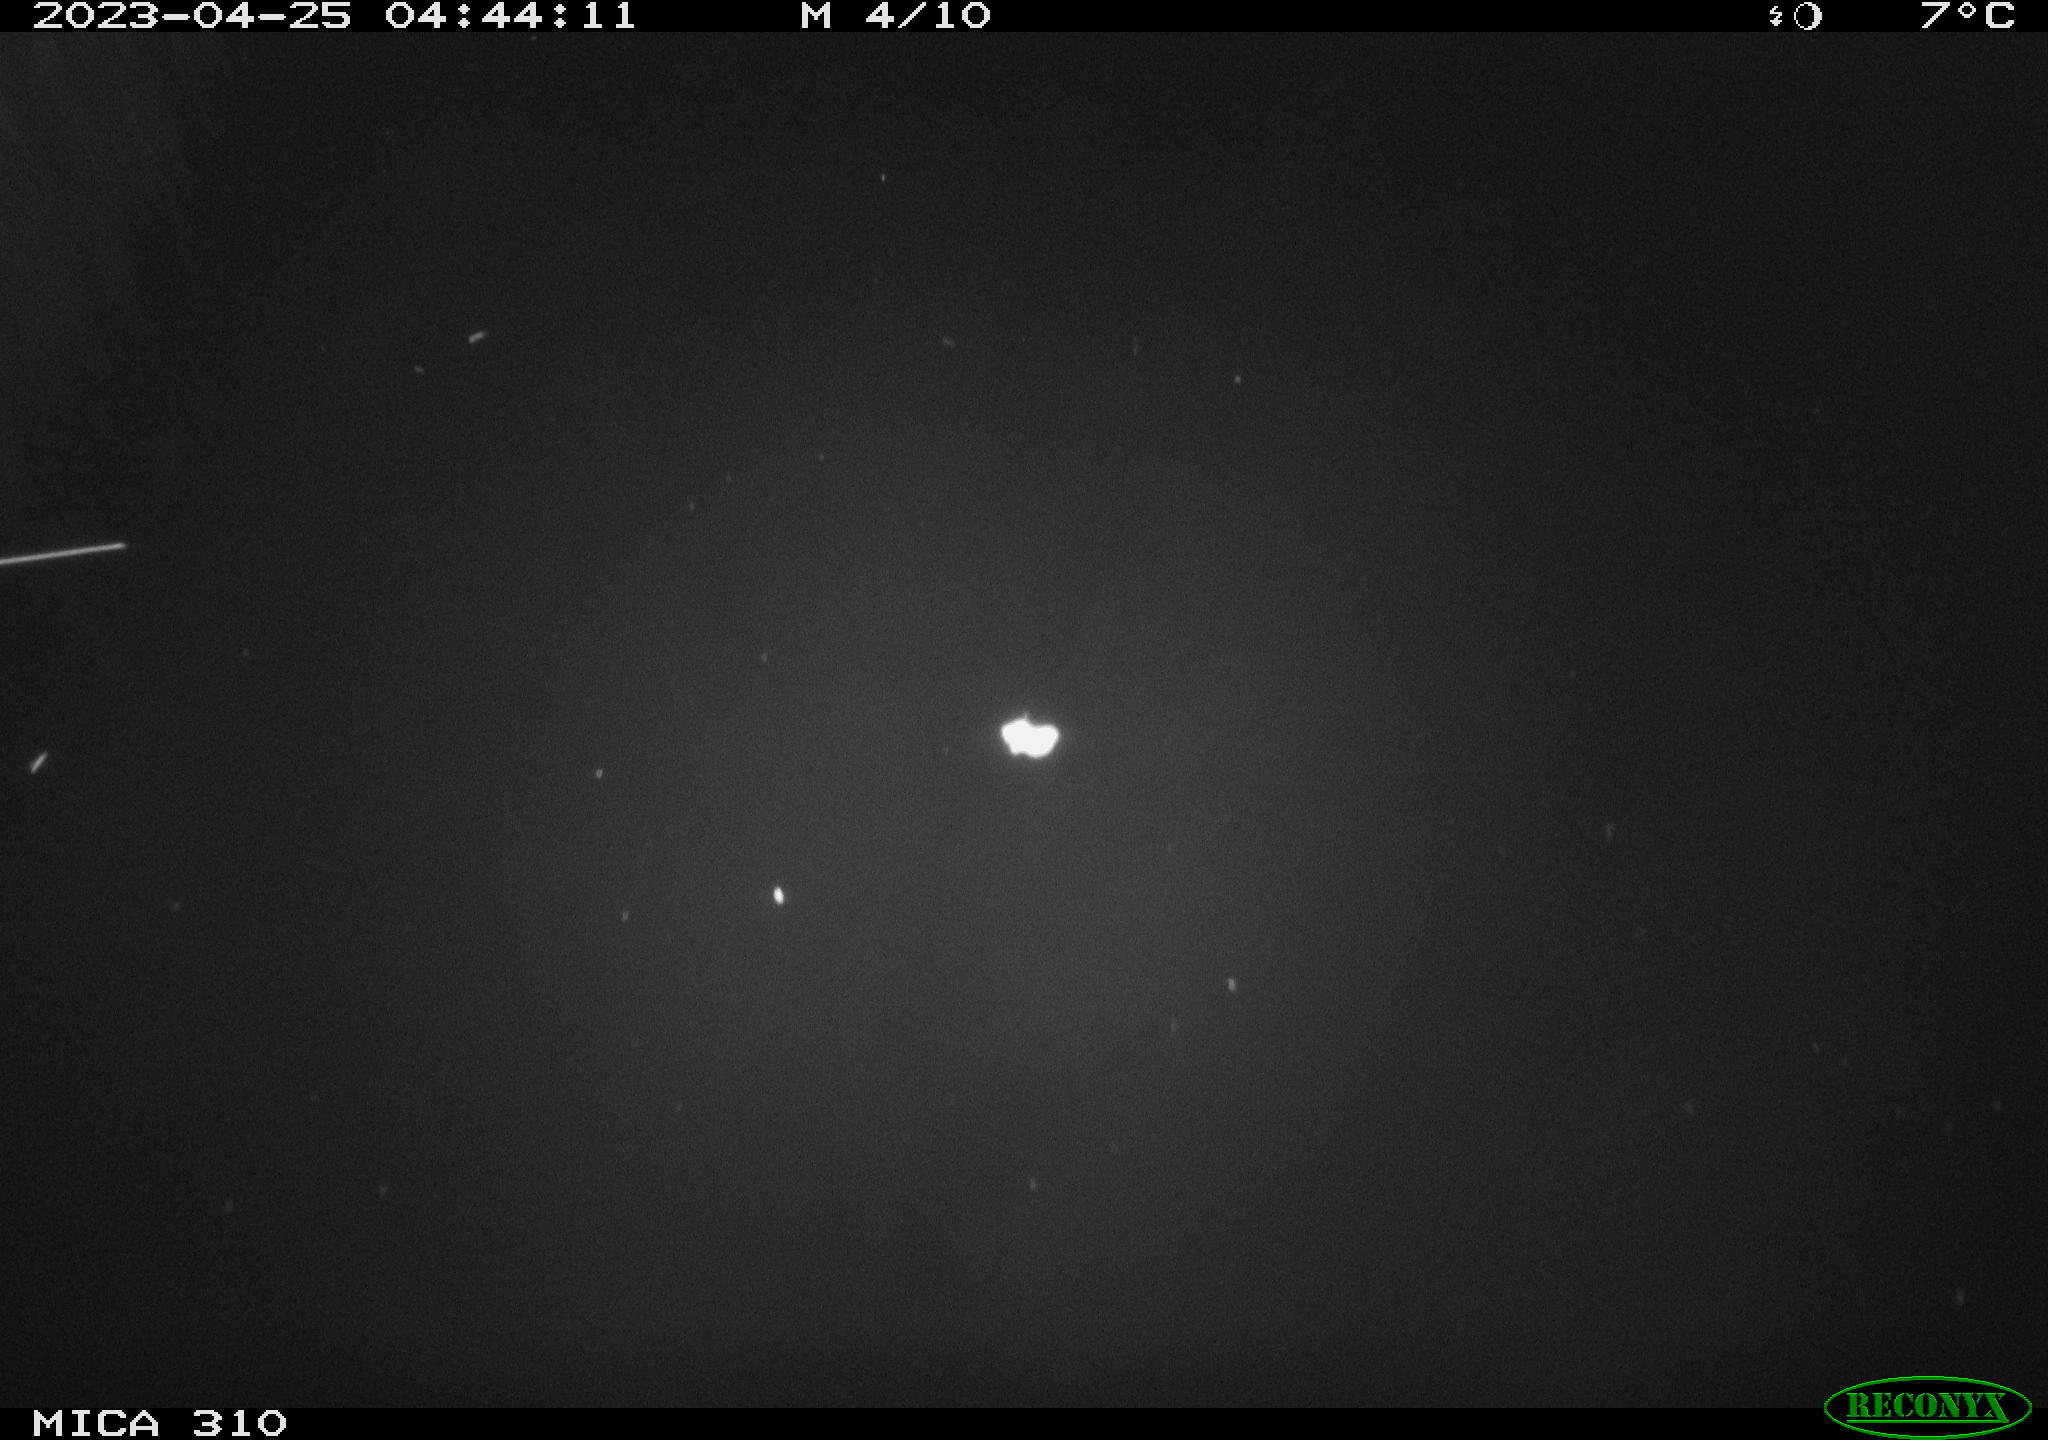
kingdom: Animalia
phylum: Chordata
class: Aves
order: Anseriformes
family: Anatidae
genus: Anas
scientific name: Anas
